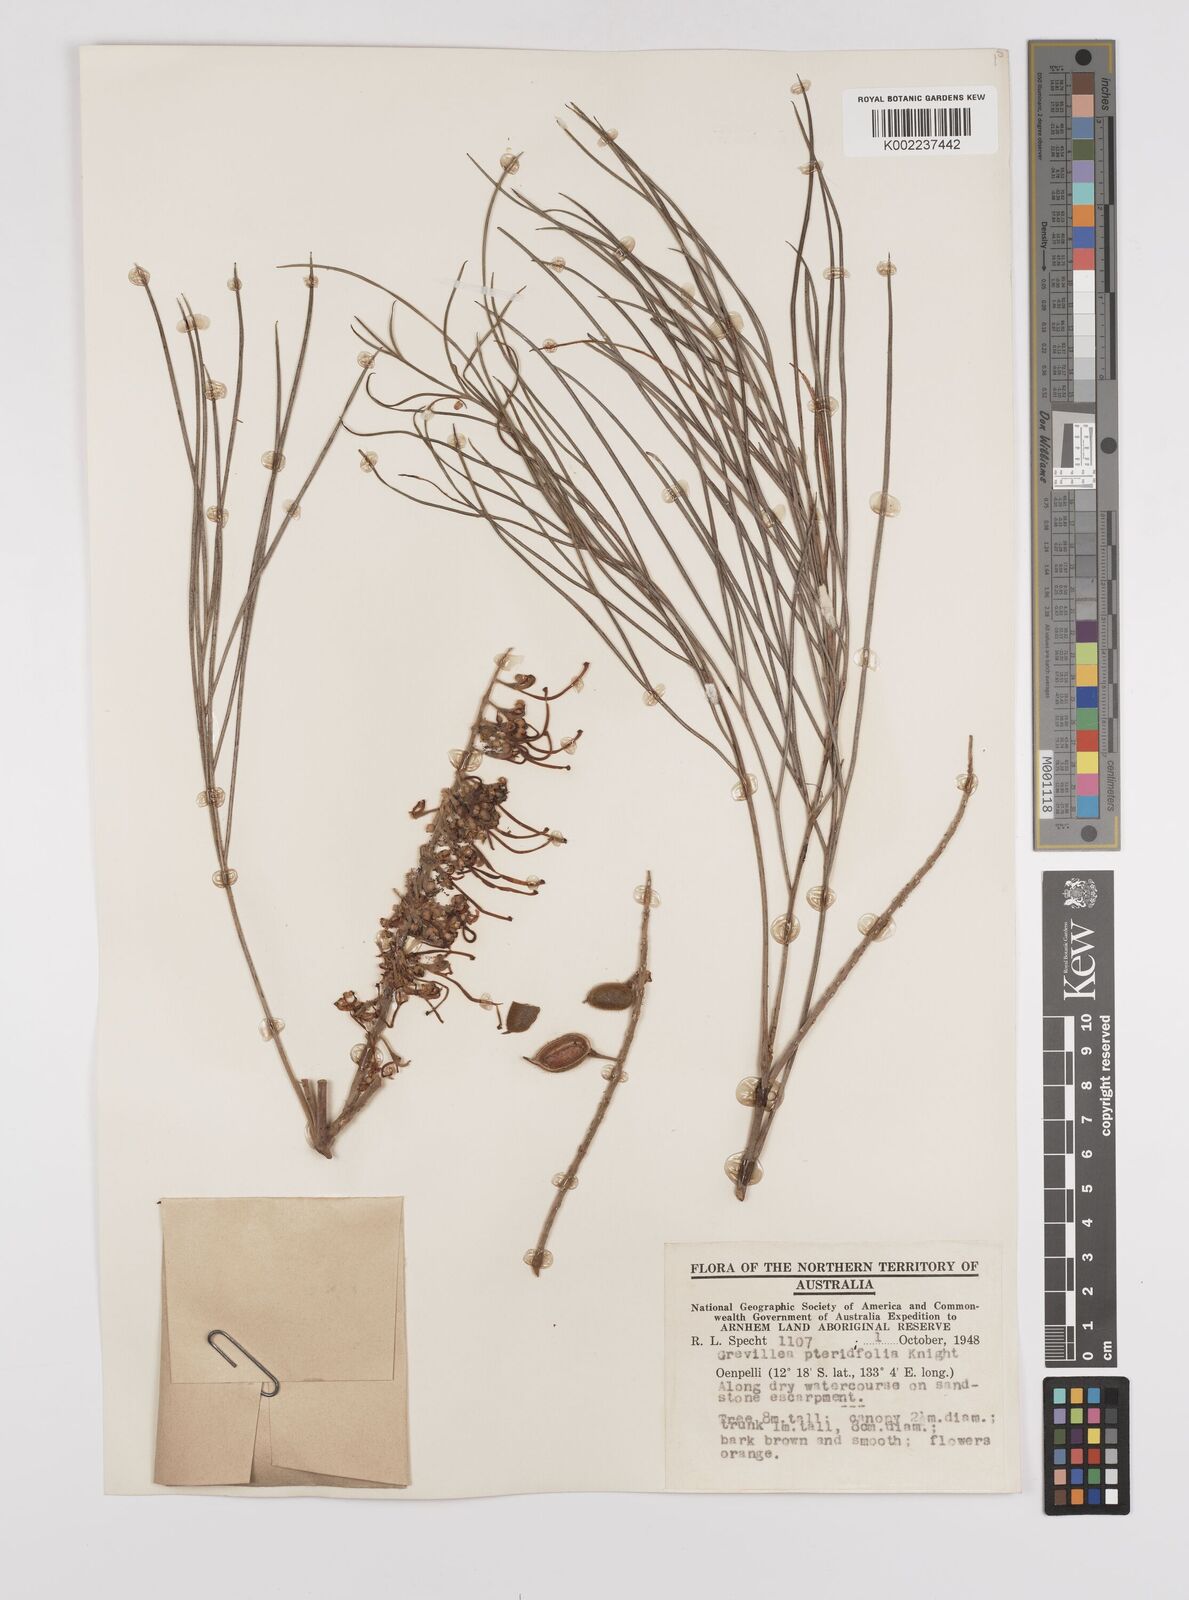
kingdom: Plantae
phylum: Tracheophyta
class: Magnoliopsida
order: Proteales
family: Proteaceae
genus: Grevillea
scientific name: Grevillea pteridifolia
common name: Golden grevillea
